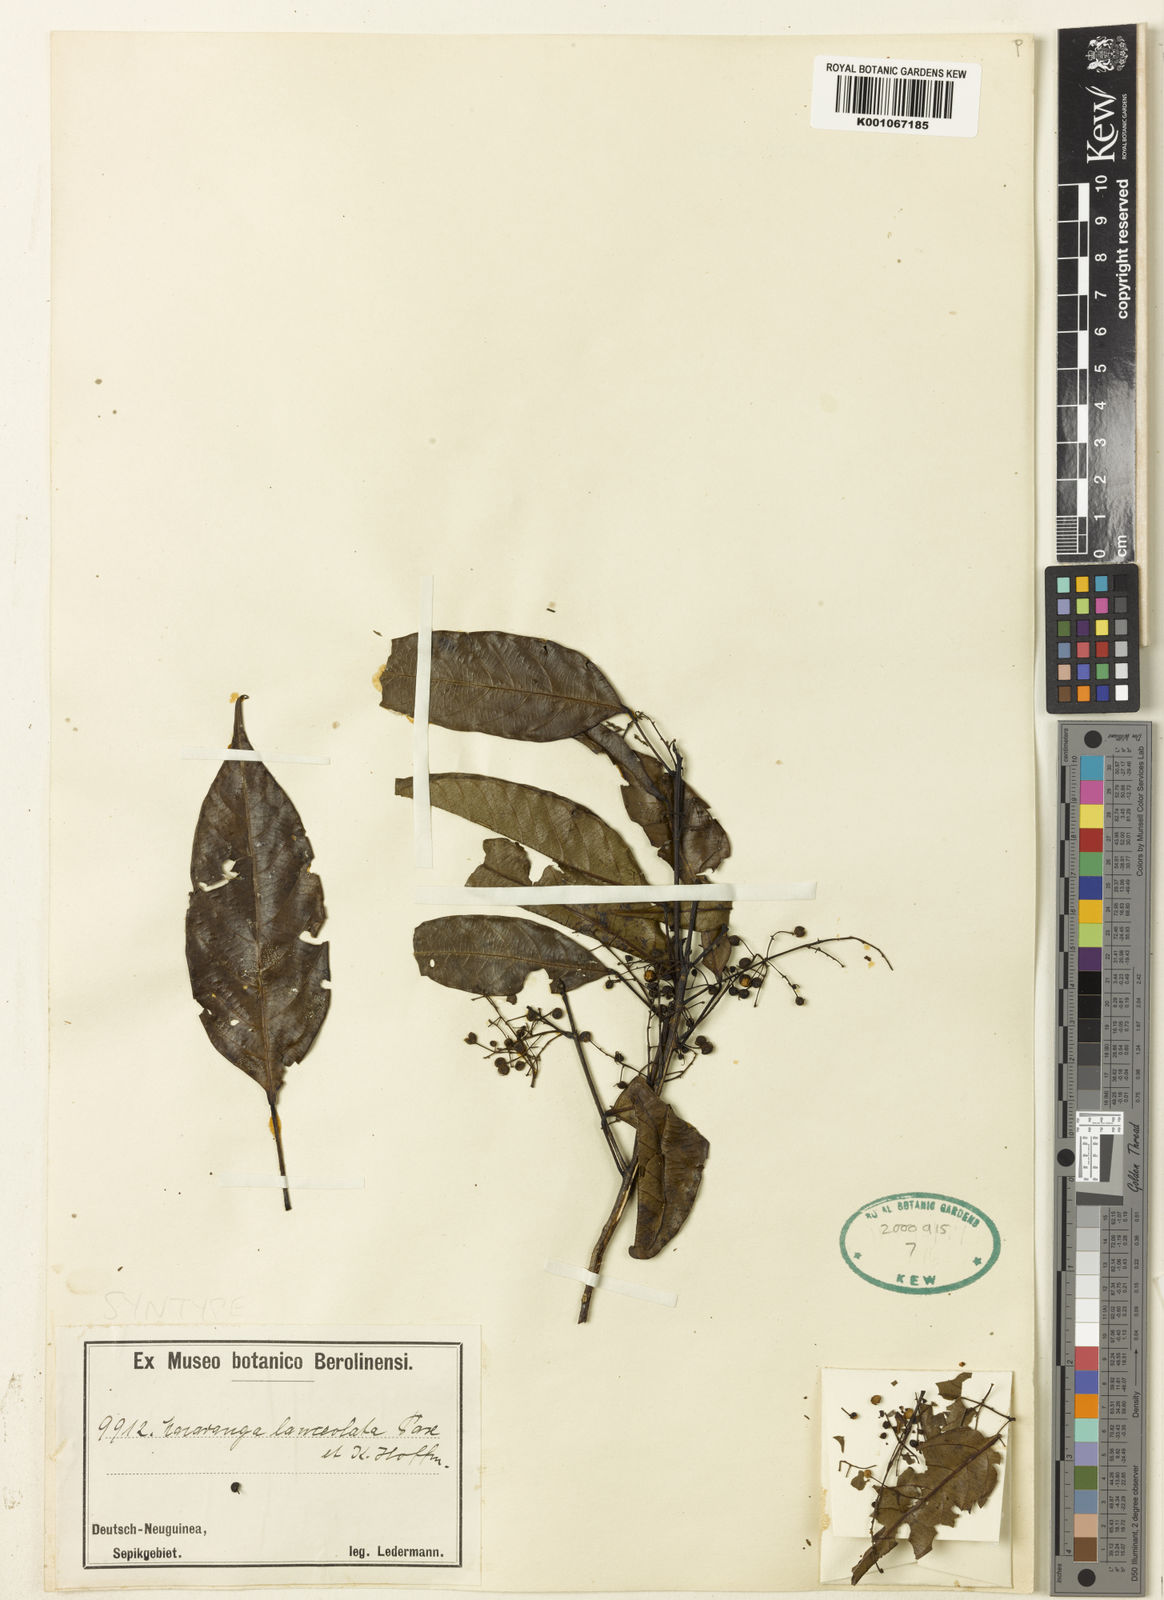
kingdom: Plantae
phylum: Tracheophyta
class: Magnoliopsida
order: Malpighiales
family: Euphorbiaceae
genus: Macaranga
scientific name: Macaranga lanceolata
